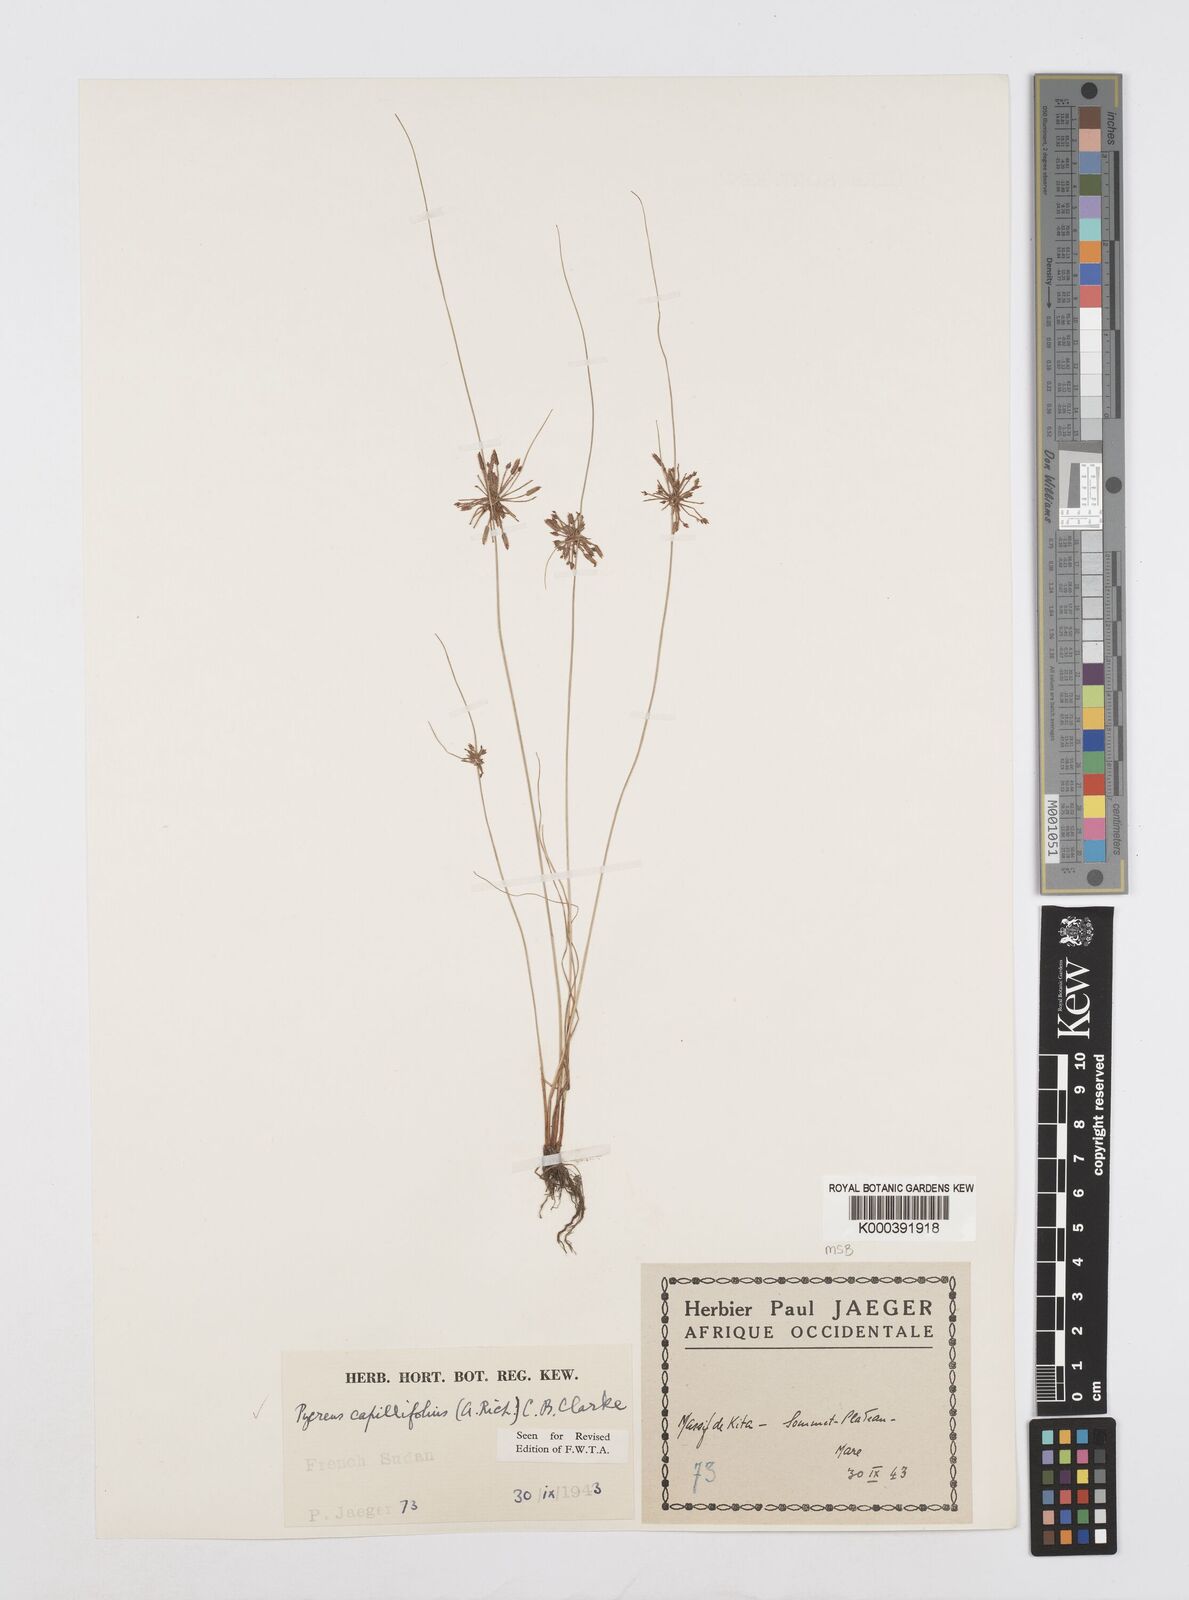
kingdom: Plantae
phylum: Tracheophyta
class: Liliopsida
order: Poales
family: Cyperaceae
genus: Cyperus
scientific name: Cyperus capillifolius
